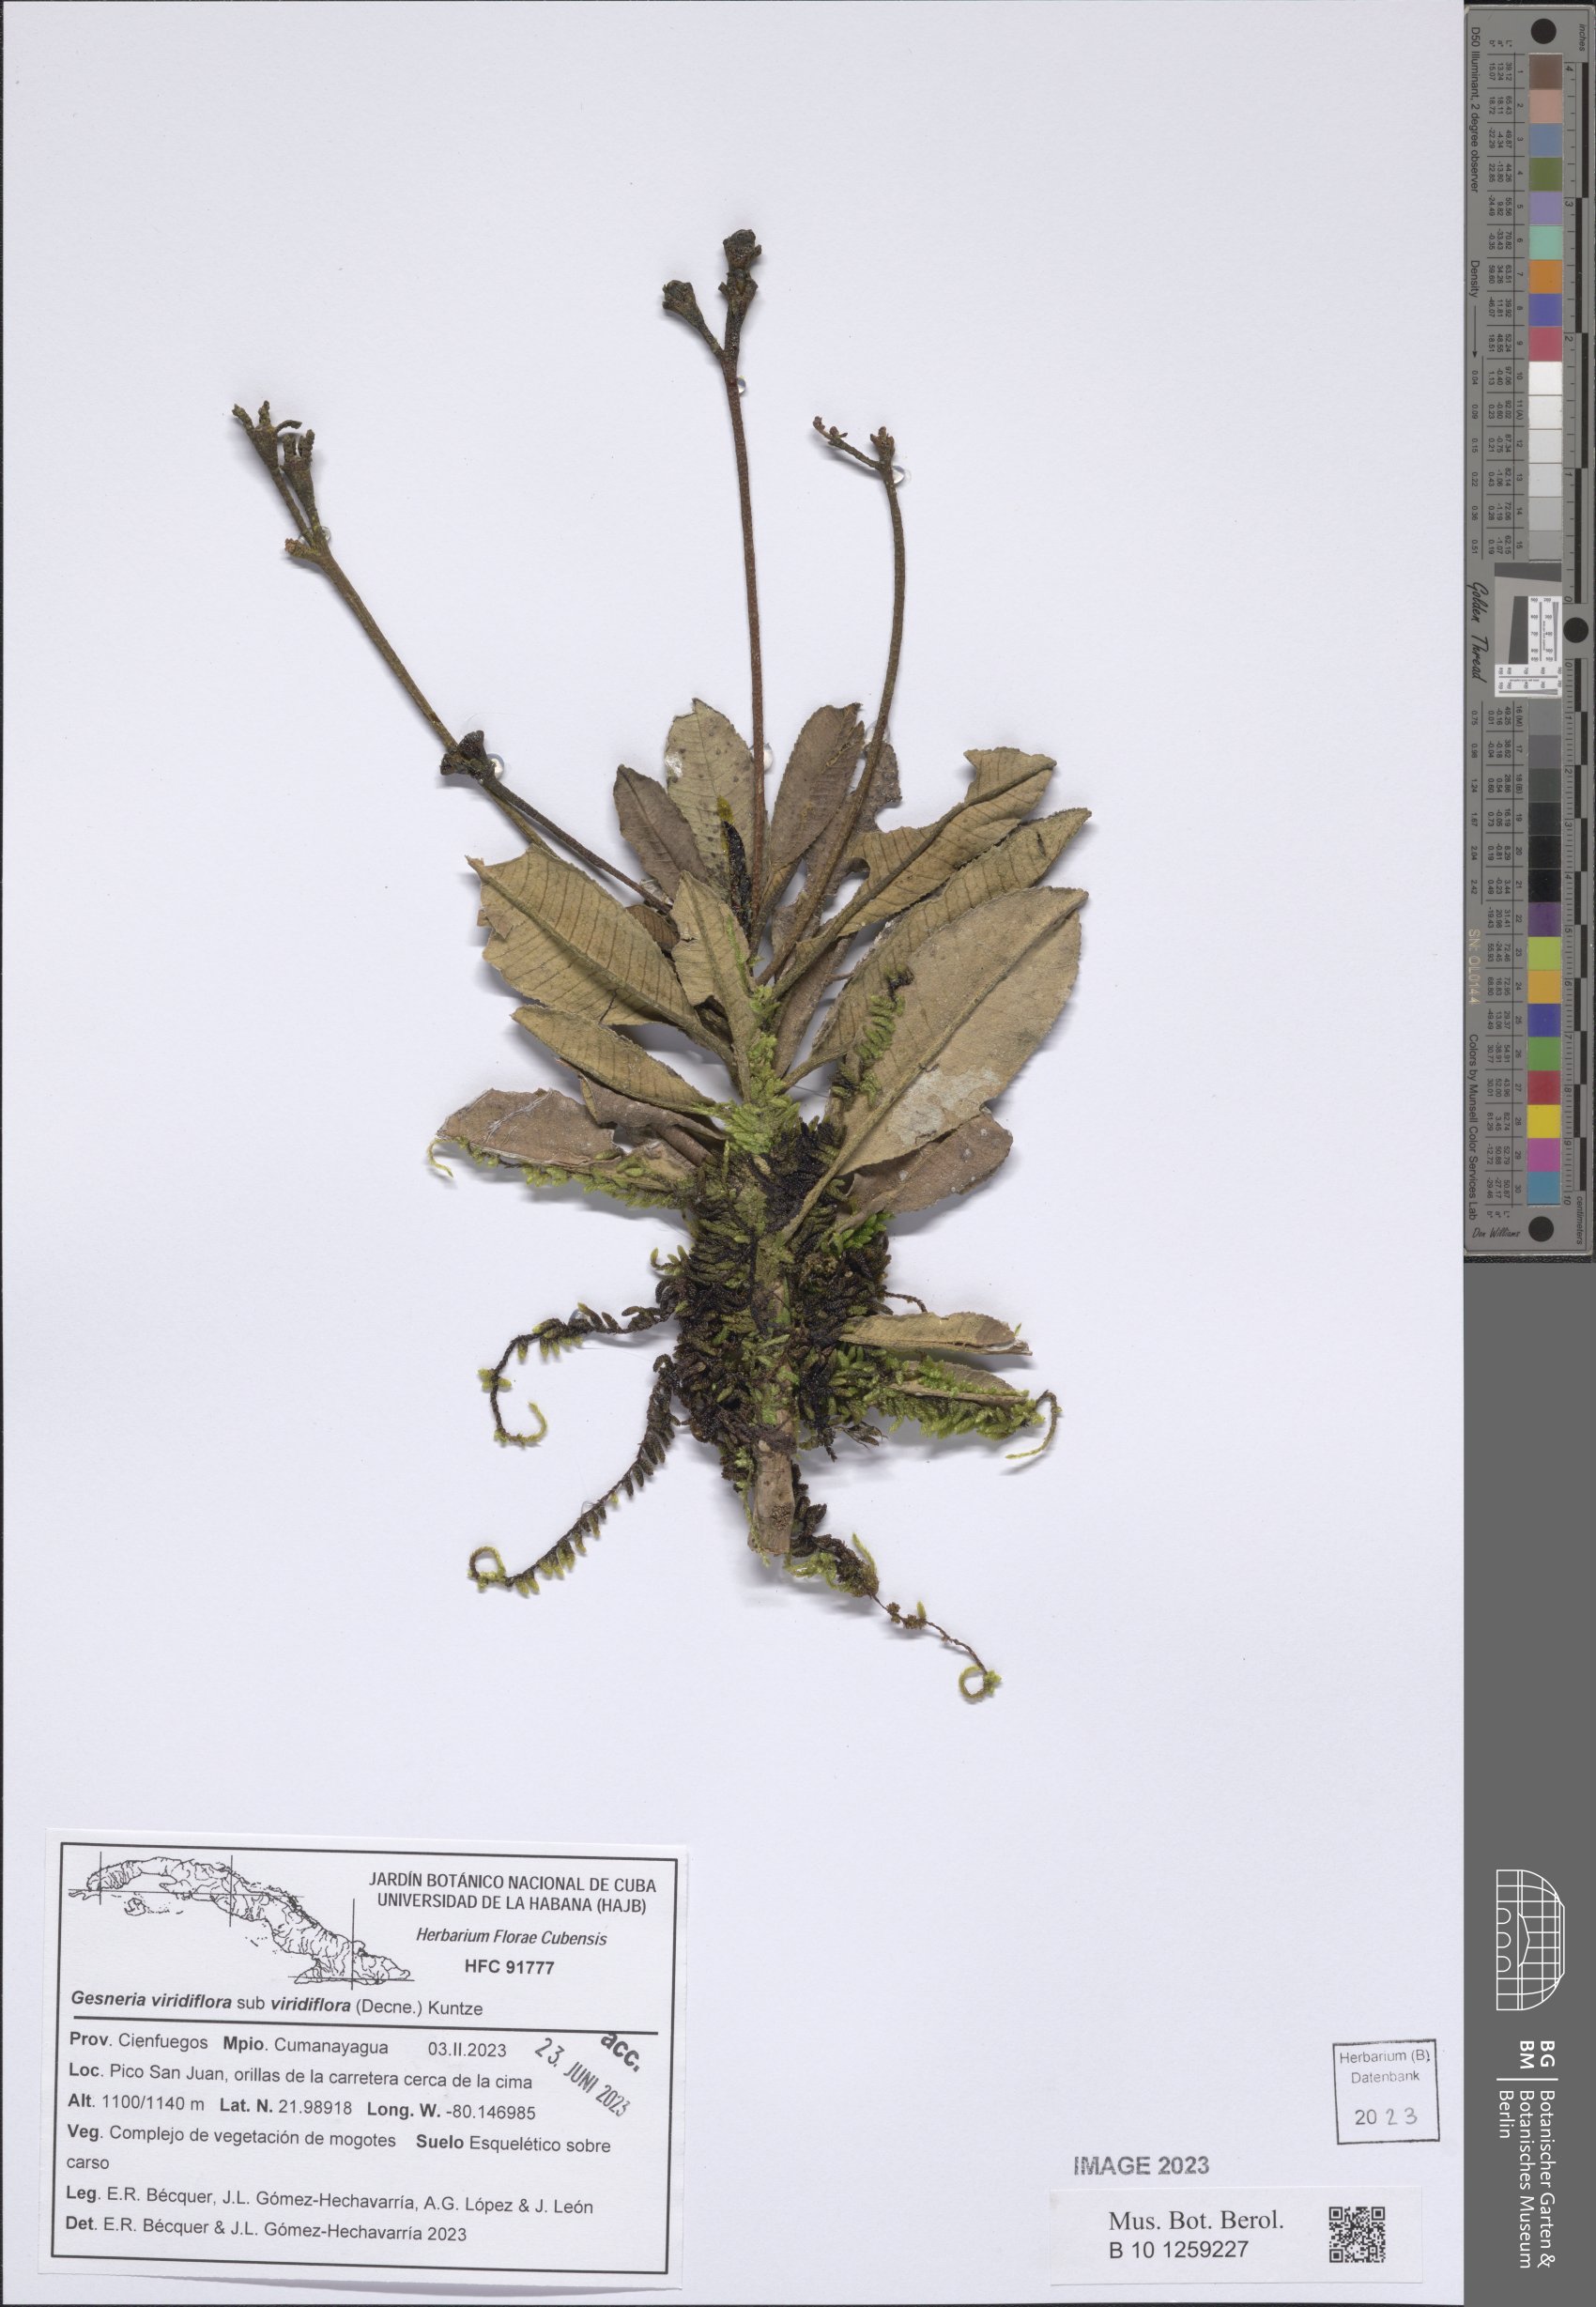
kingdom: Plantae
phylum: Tracheophyta
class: Magnoliopsida
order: Lamiales
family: Gesneriaceae
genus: Gesneria
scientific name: Gesneria viridiflora
